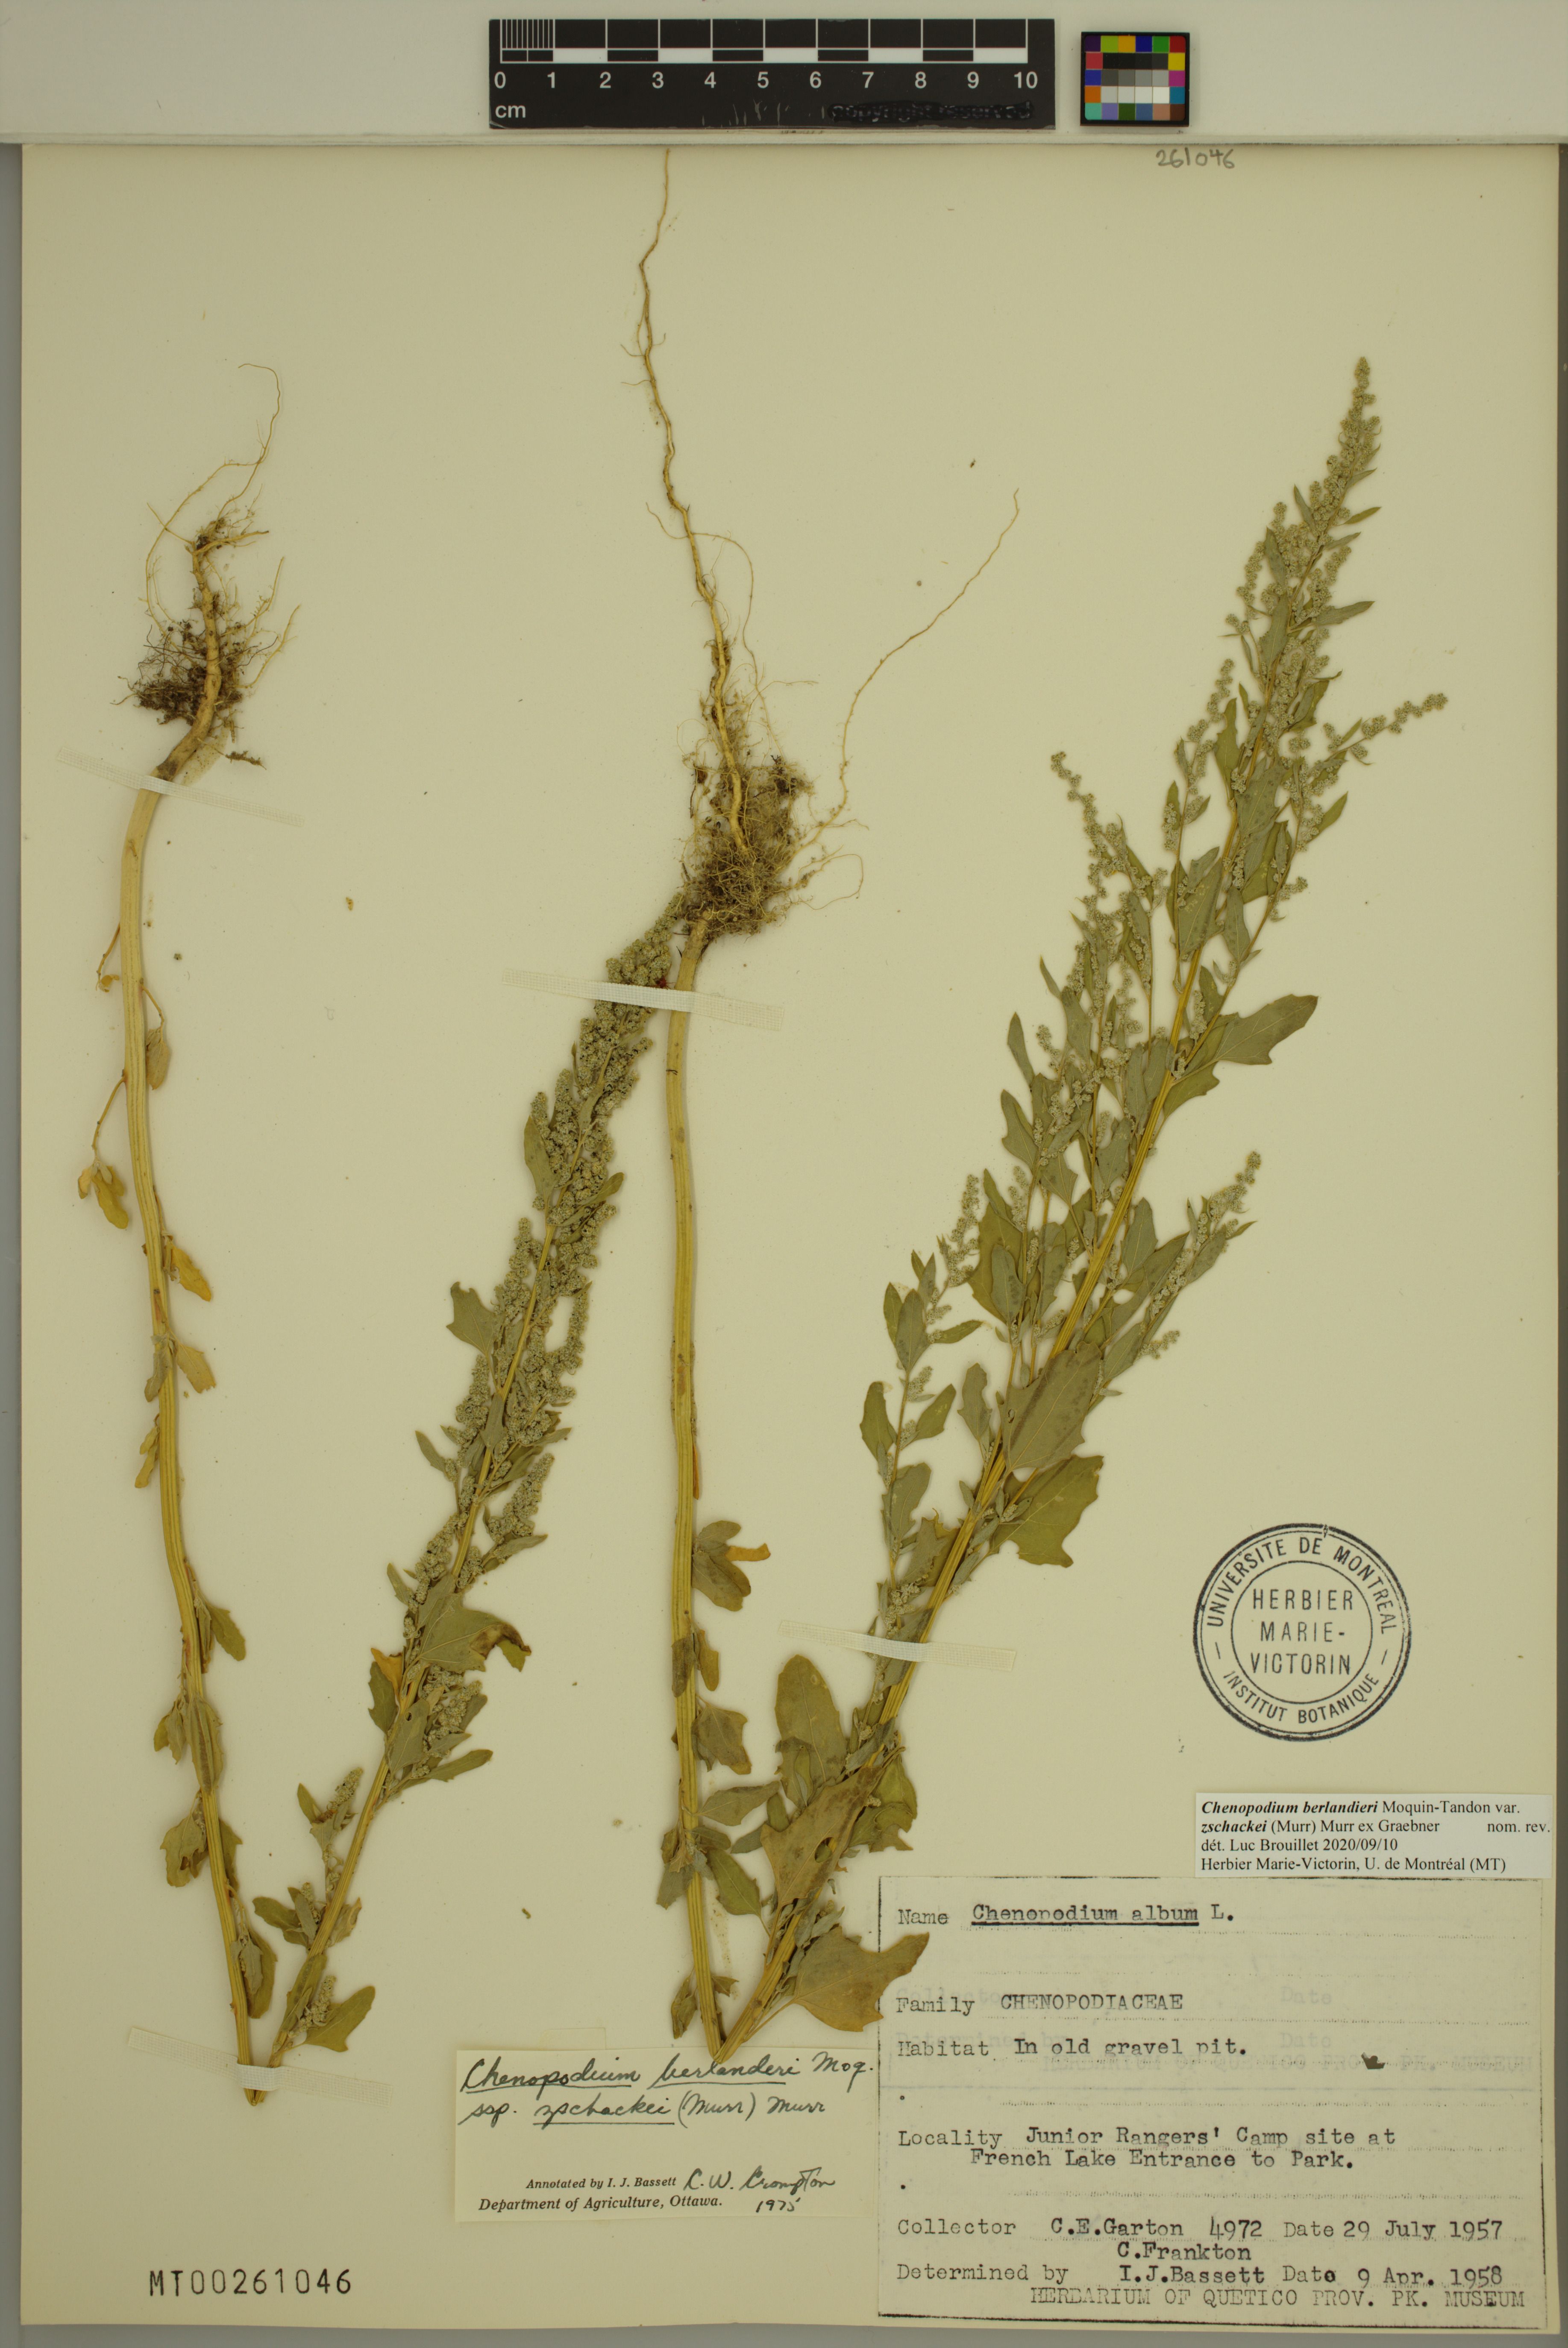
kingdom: Plantae
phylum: Tracheophyta
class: Magnoliopsida
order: Caryophyllales
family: Amaranthaceae
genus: Chenopodium
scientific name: Chenopodium berlandieri
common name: Pit-seed goosefoot
